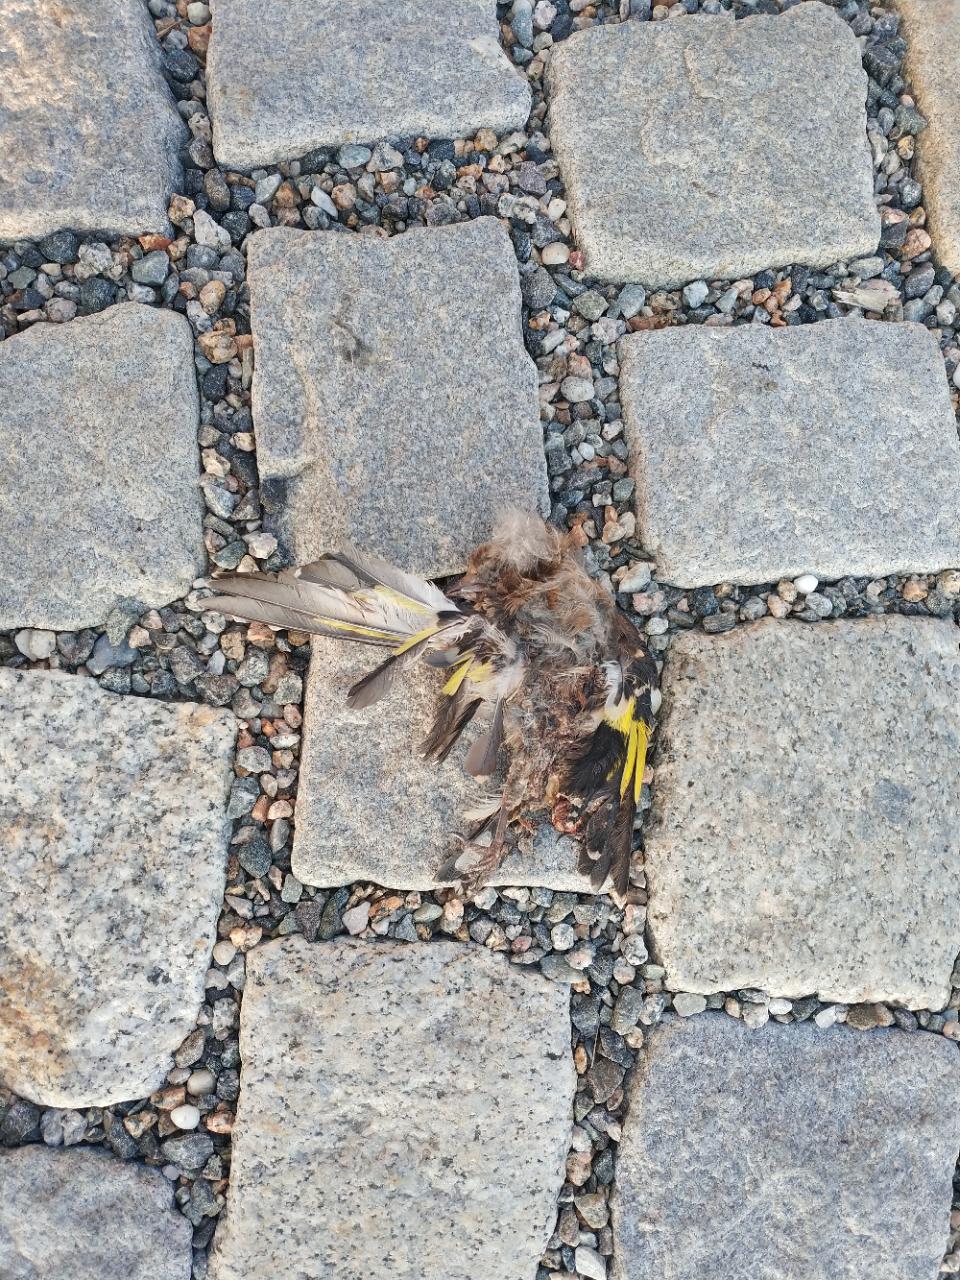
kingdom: Animalia
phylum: Chordata
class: Aves
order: Passeriformes
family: Fringillidae
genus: Carduelis
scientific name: Carduelis carduelis
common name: European goldfinch
